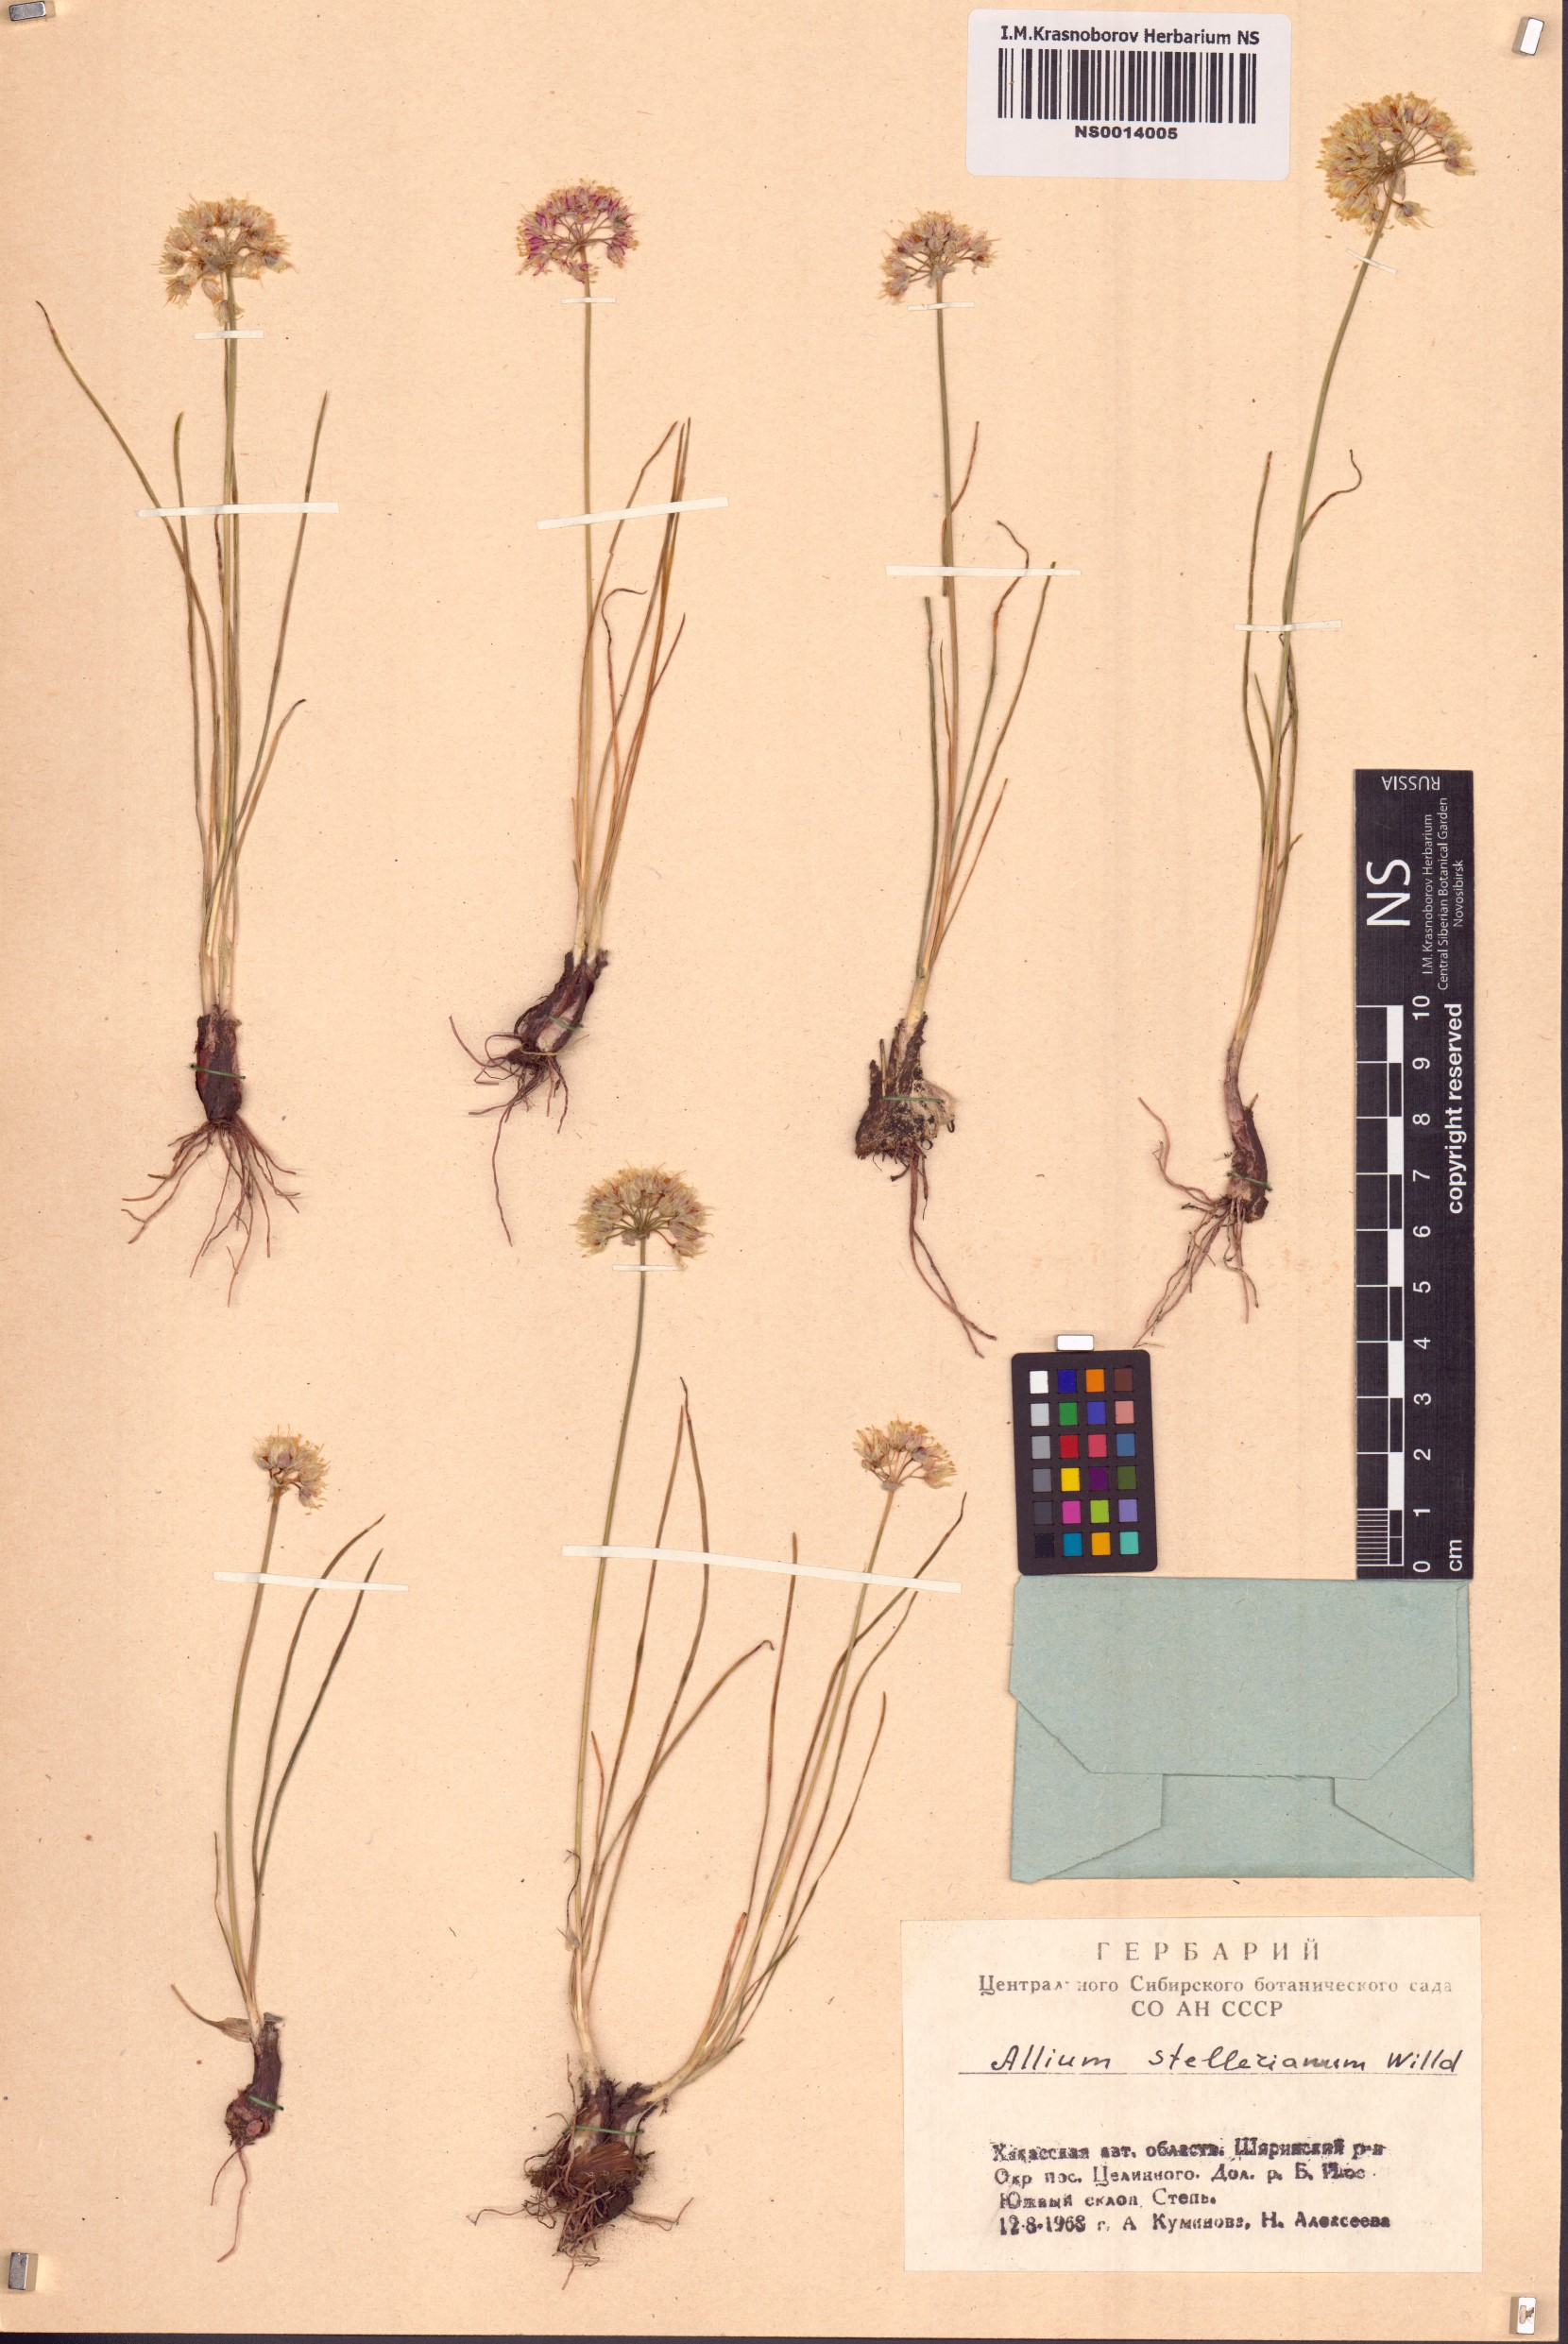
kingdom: Plantae
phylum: Tracheophyta
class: Liliopsida
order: Asparagales
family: Amaryllidaceae
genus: Allium
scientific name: Allium stellerianum
